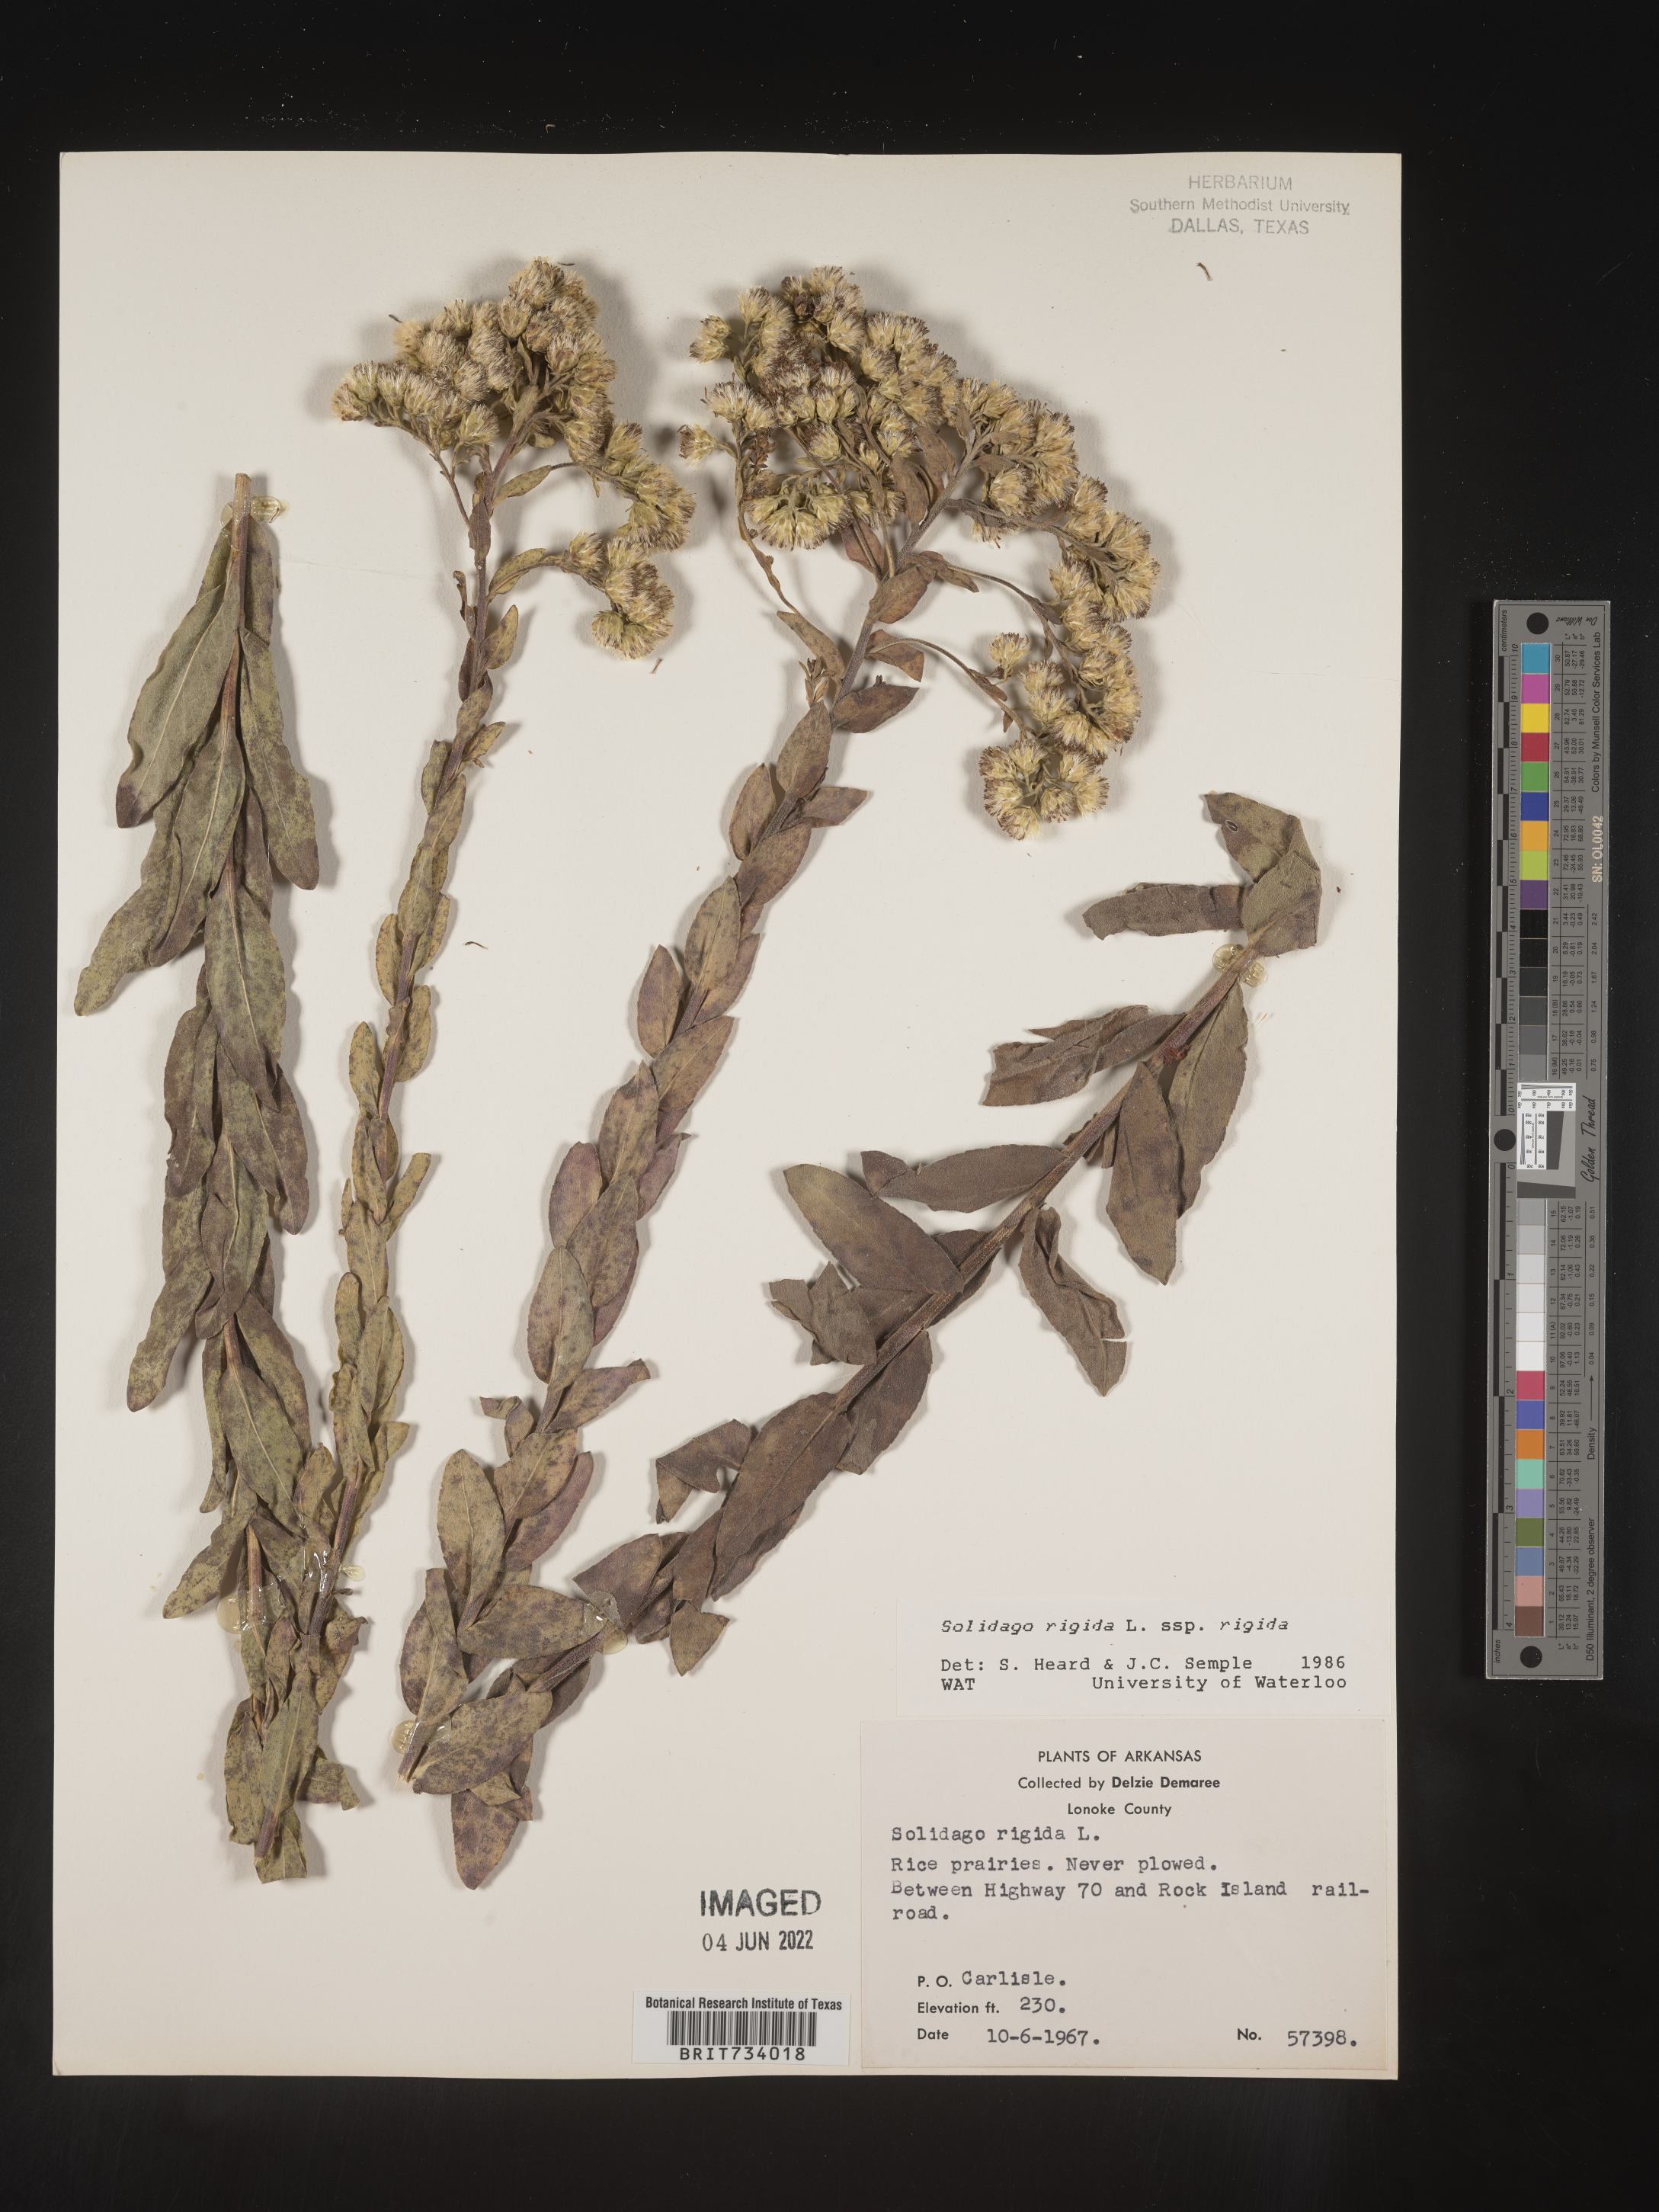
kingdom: Plantae
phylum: Tracheophyta
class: Magnoliopsida
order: Asterales
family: Asteraceae
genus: Solidago
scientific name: Solidago rigida
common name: Rigid goldenrod
